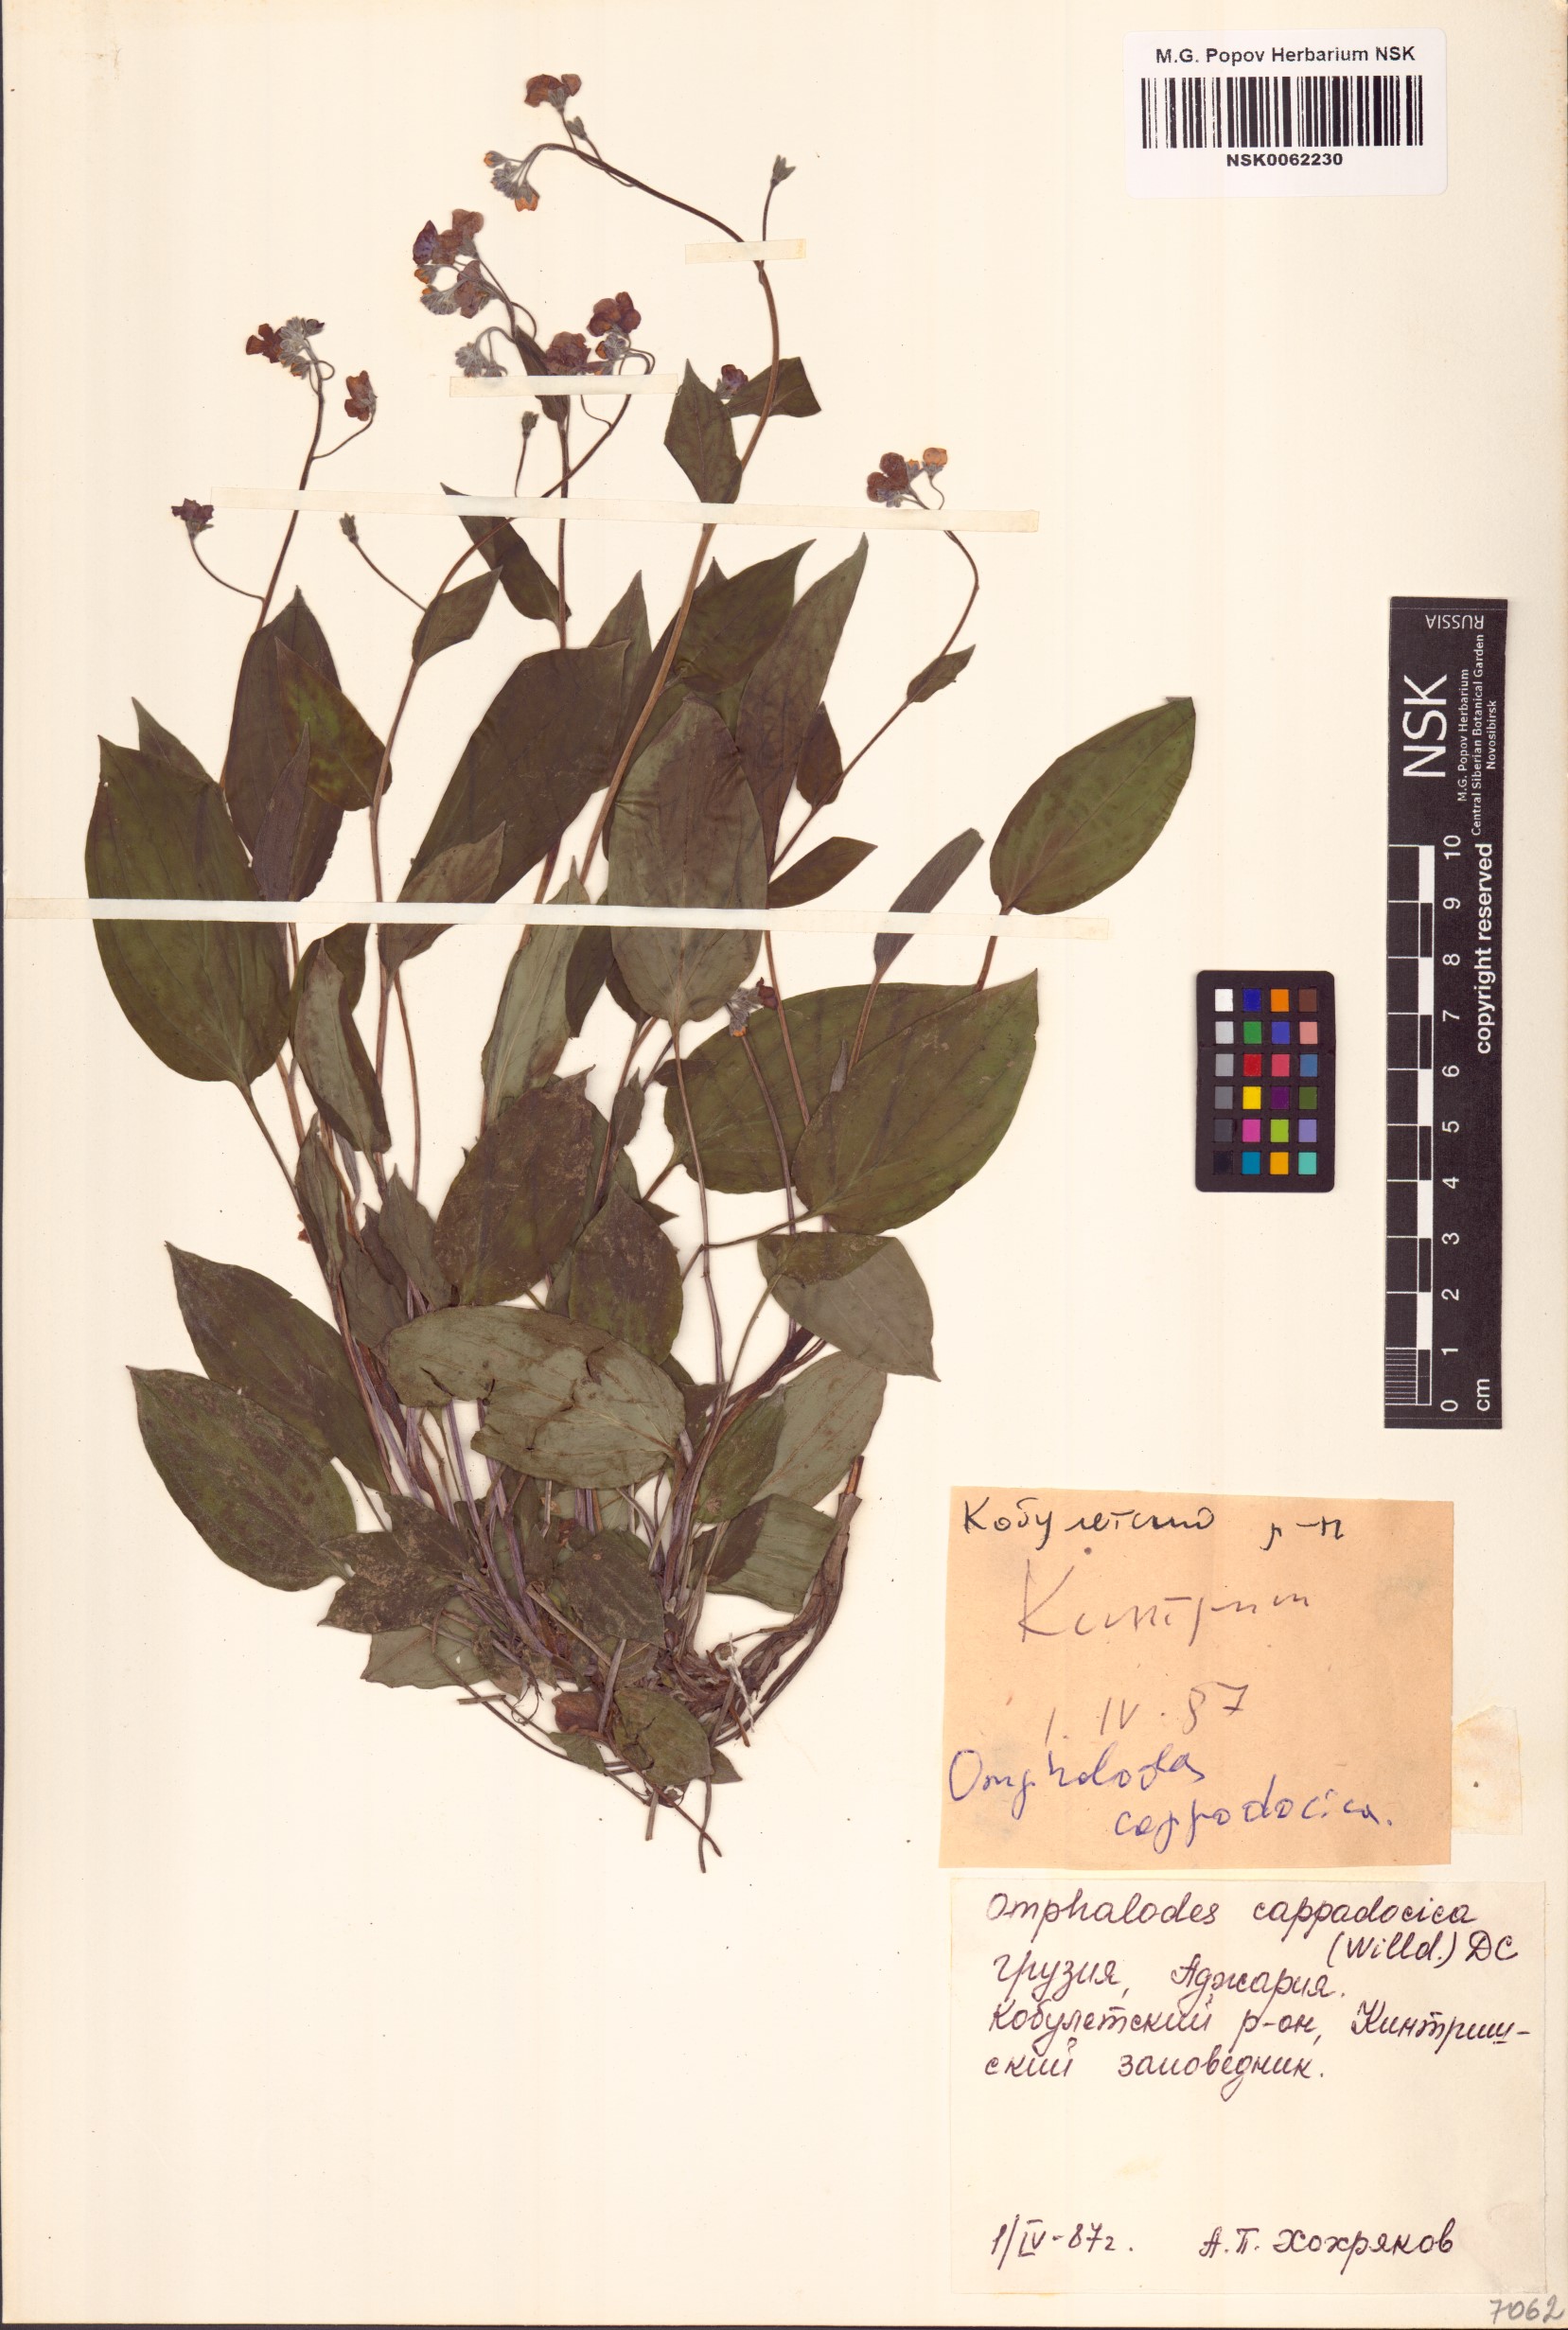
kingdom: Plantae
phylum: Tracheophyta
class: Magnoliopsida
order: Boraginales
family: Boraginaceae
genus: Omphalodes
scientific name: Omphalodes cappadocica
